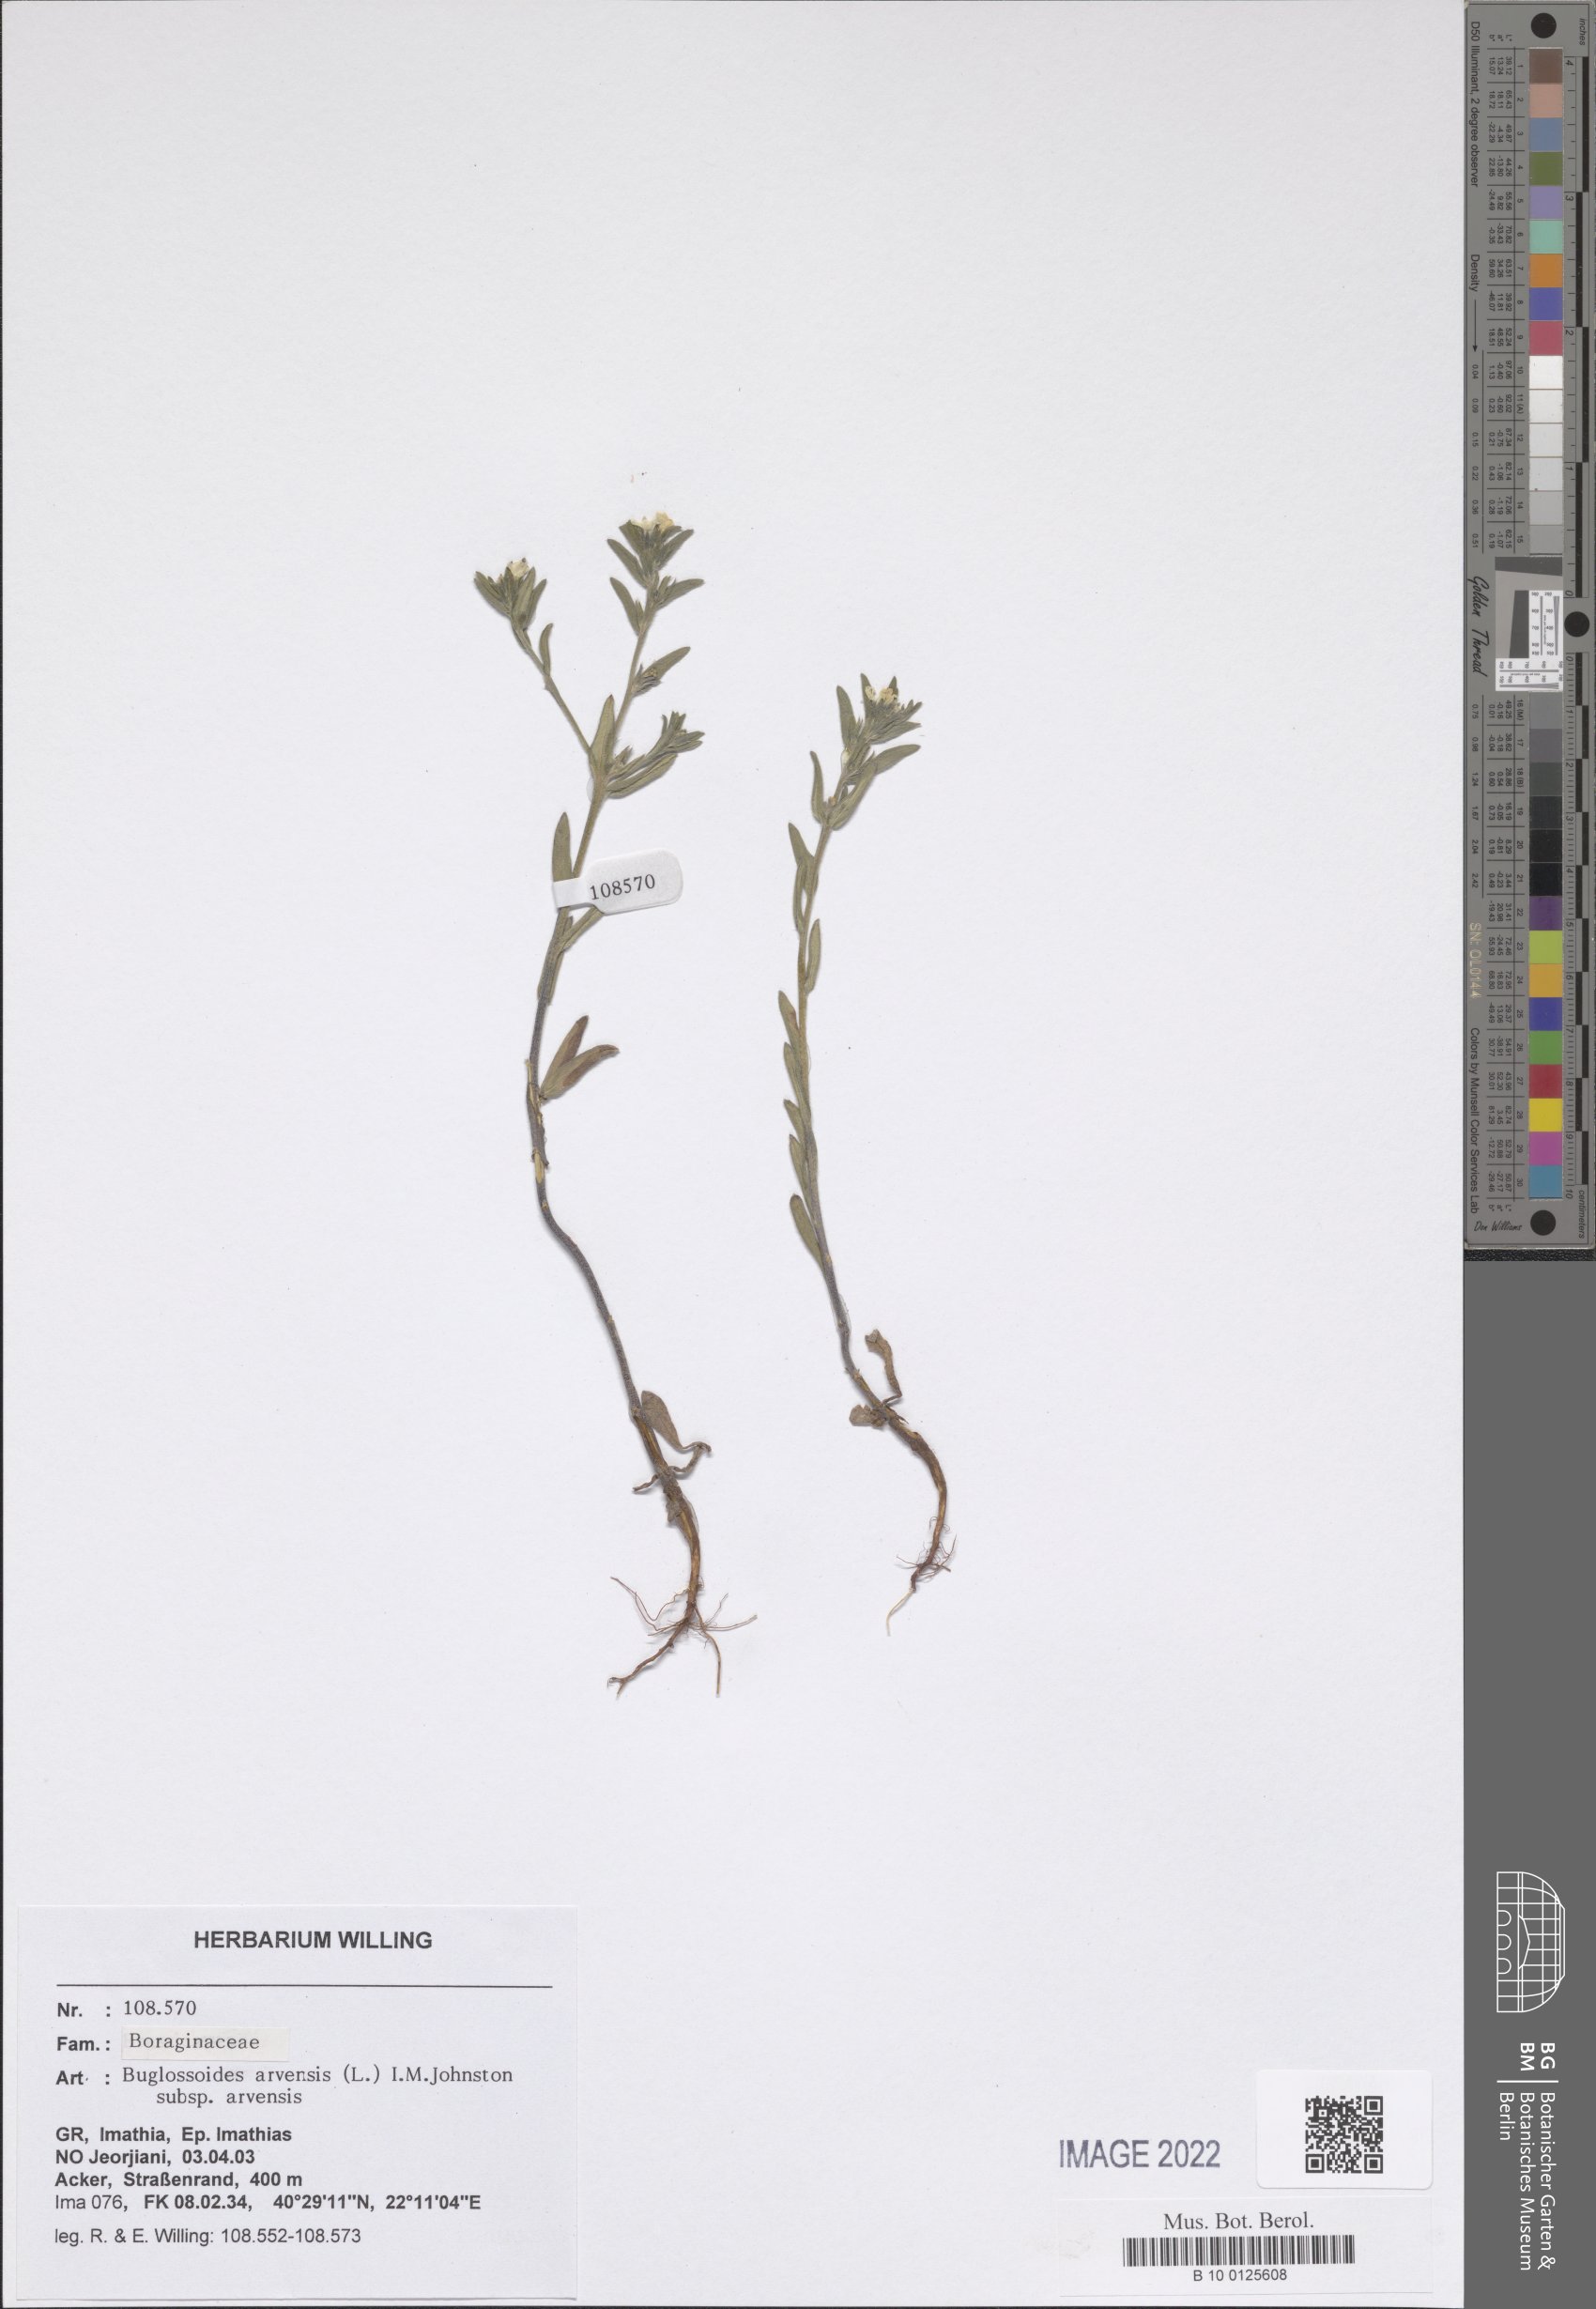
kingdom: Plantae
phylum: Tracheophyta
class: Magnoliopsida
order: Boraginales
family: Boraginaceae
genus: Buglossoides
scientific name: Buglossoides arvensis
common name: Corn gromwell
